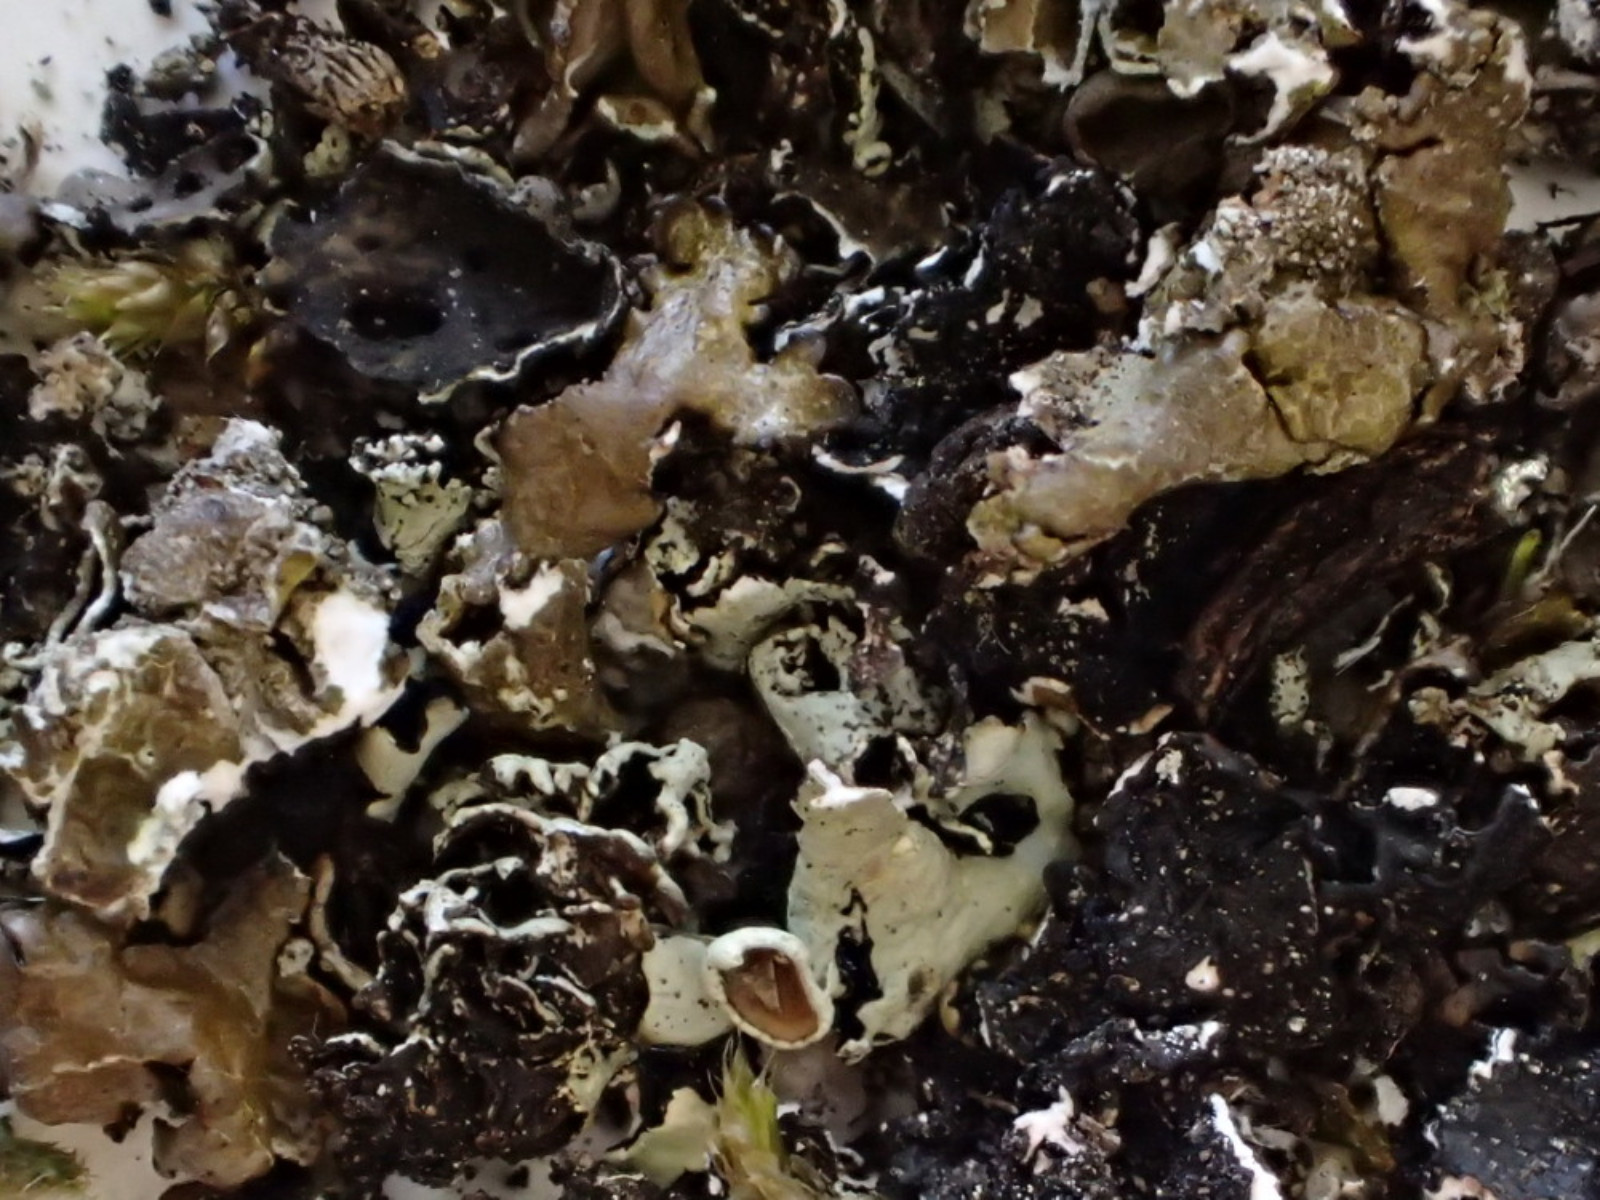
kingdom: Fungi
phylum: Ascomycota
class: Lecanoromycetes
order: Lecanorales
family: Parmeliaceae
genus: Xanthoparmelia
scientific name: Xanthoparmelia loxodes
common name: knudret skållav
